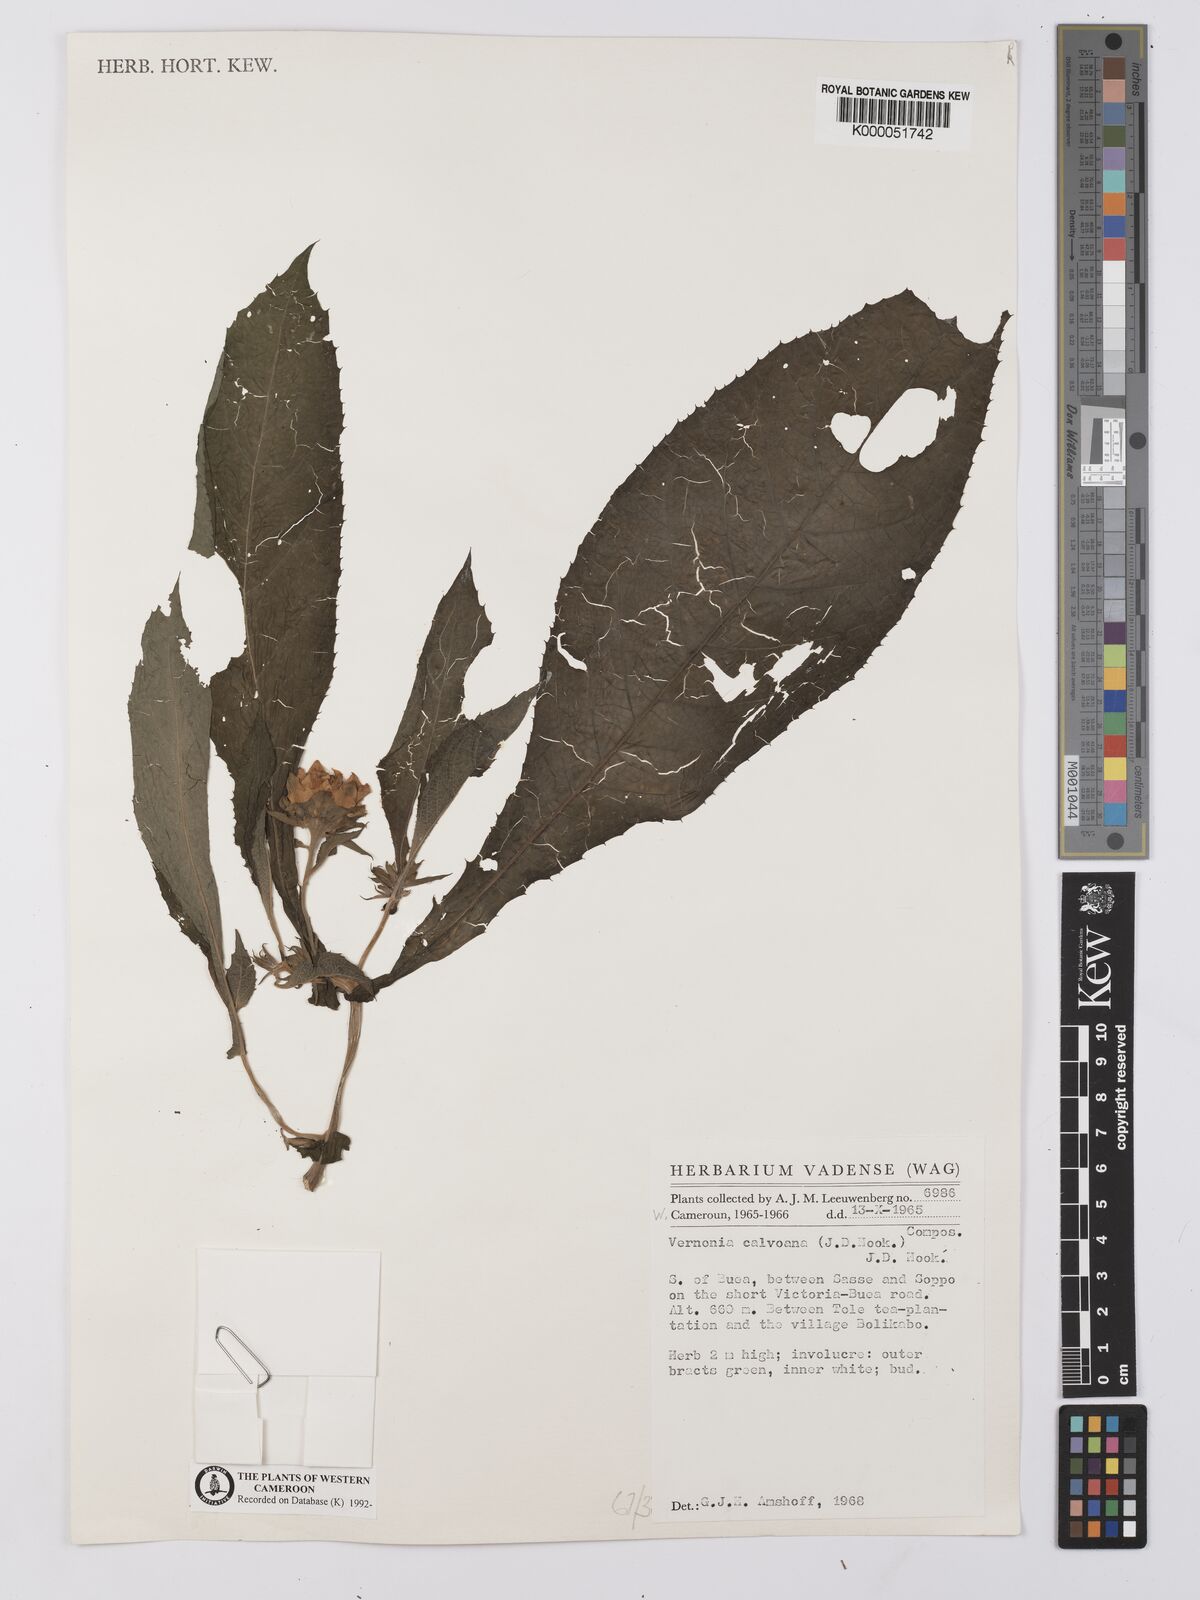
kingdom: Plantae
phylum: Tracheophyta
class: Magnoliopsida
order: Asterales
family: Asteraceae
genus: Baccharoides
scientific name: Baccharoides hymenolepis
